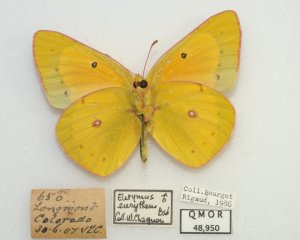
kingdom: Animalia
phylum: Arthropoda
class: Insecta
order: Lepidoptera
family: Pieridae
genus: Colias
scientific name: Colias eurytheme
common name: Orange Sulphur
